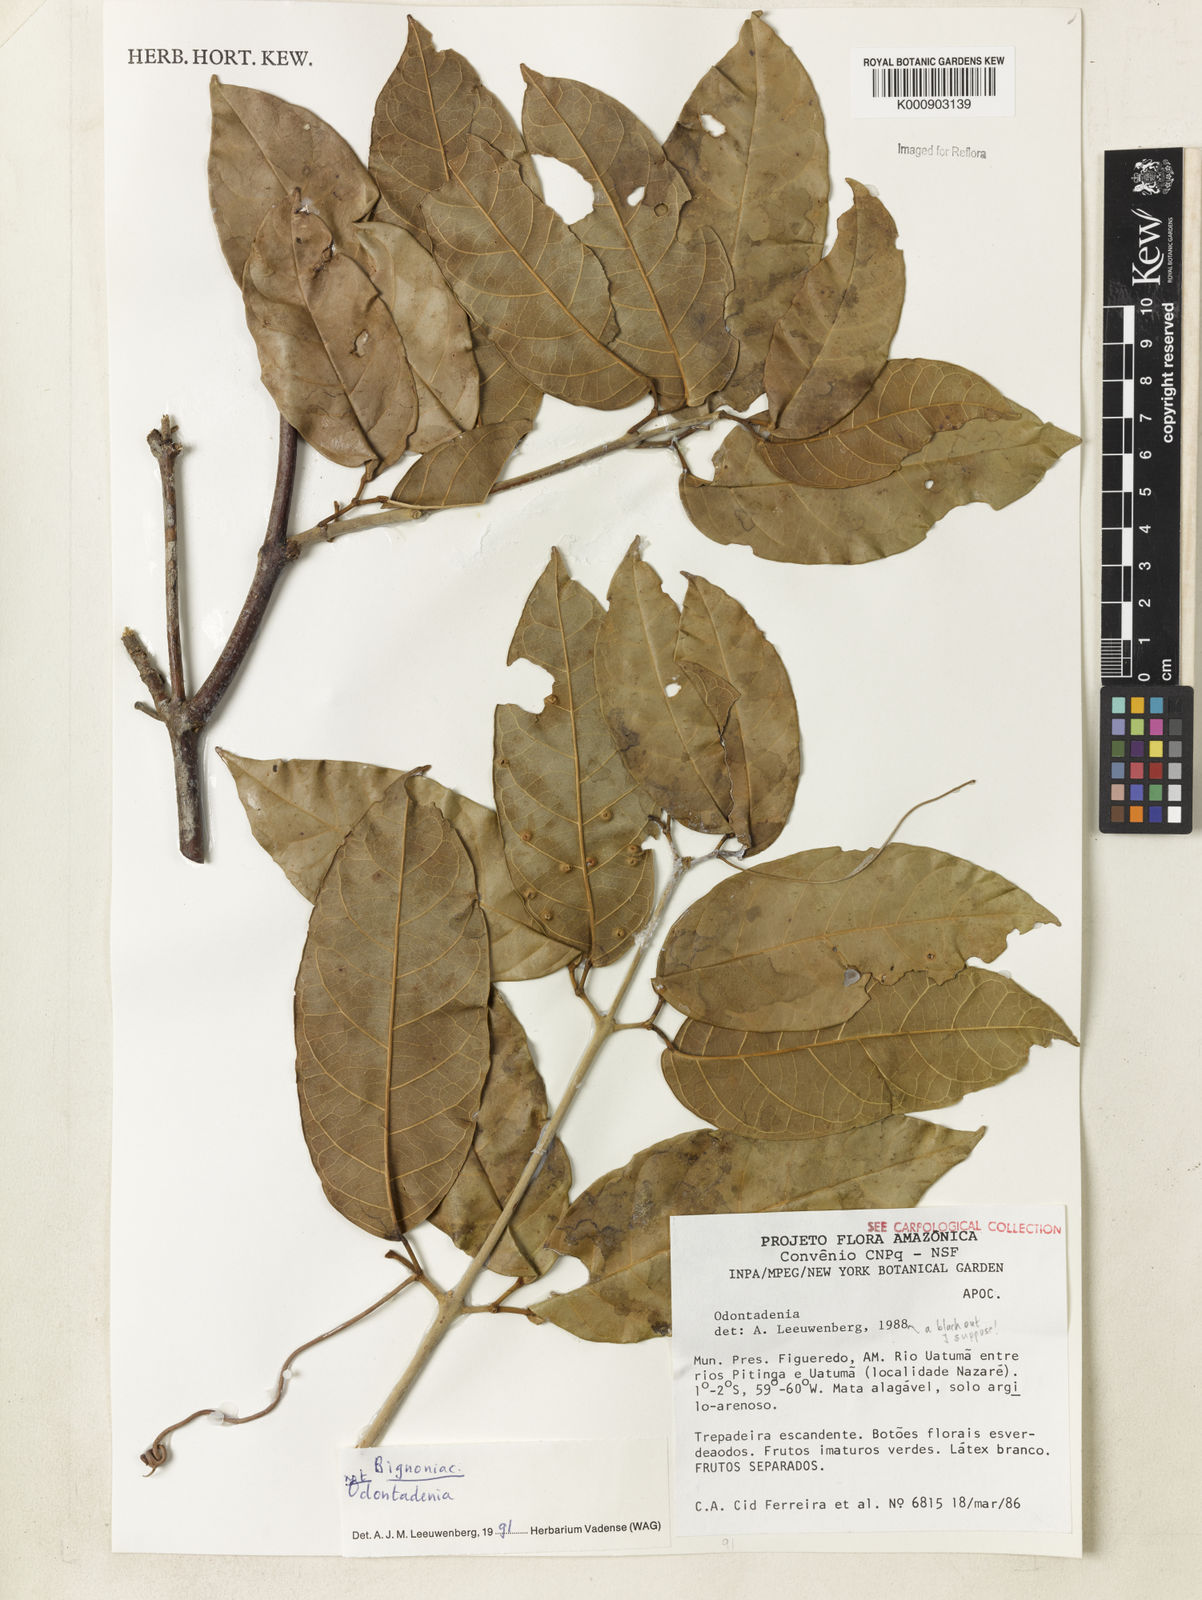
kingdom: Plantae
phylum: Tracheophyta
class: Magnoliopsida
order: Lamiales
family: Bignoniaceae
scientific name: Bignoniaceae
